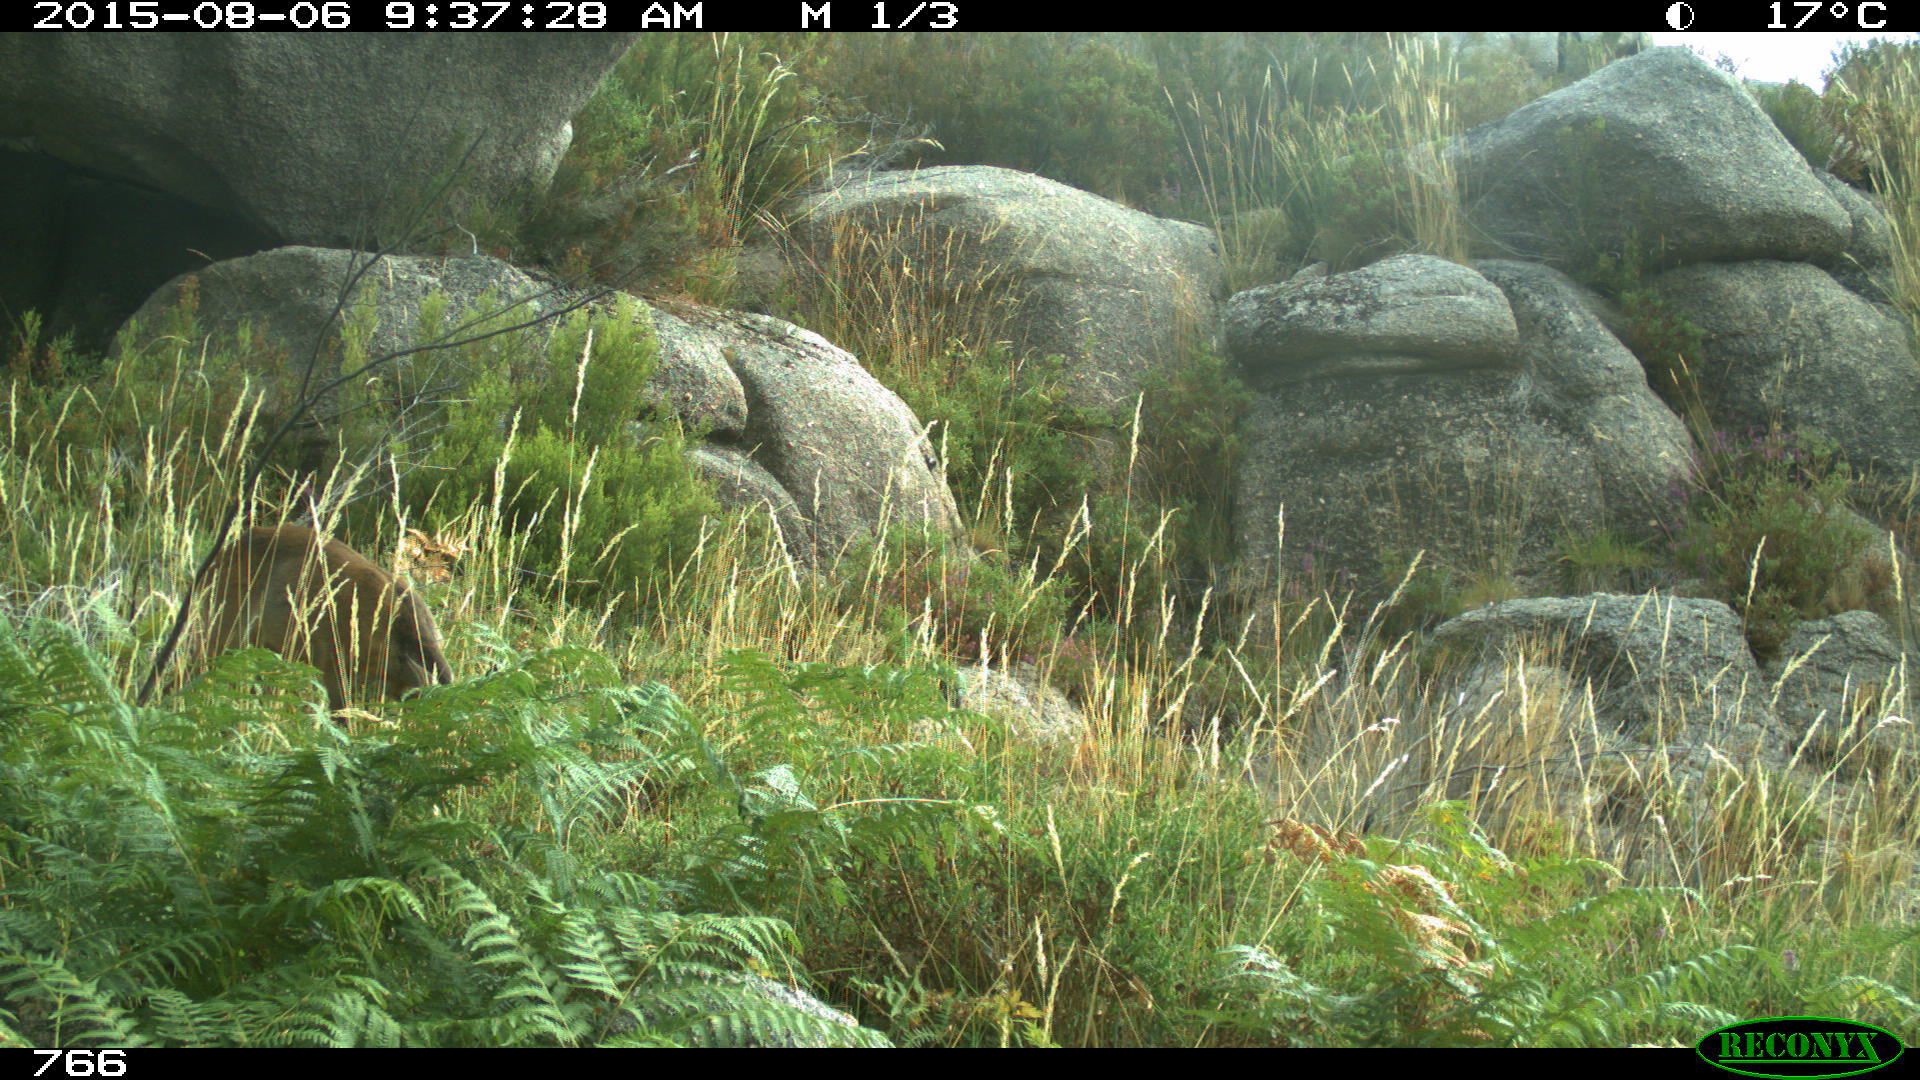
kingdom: Animalia
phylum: Chordata
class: Mammalia
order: Artiodactyla
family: Cervidae
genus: Capreolus
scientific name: Capreolus capreolus
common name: Western roe deer
